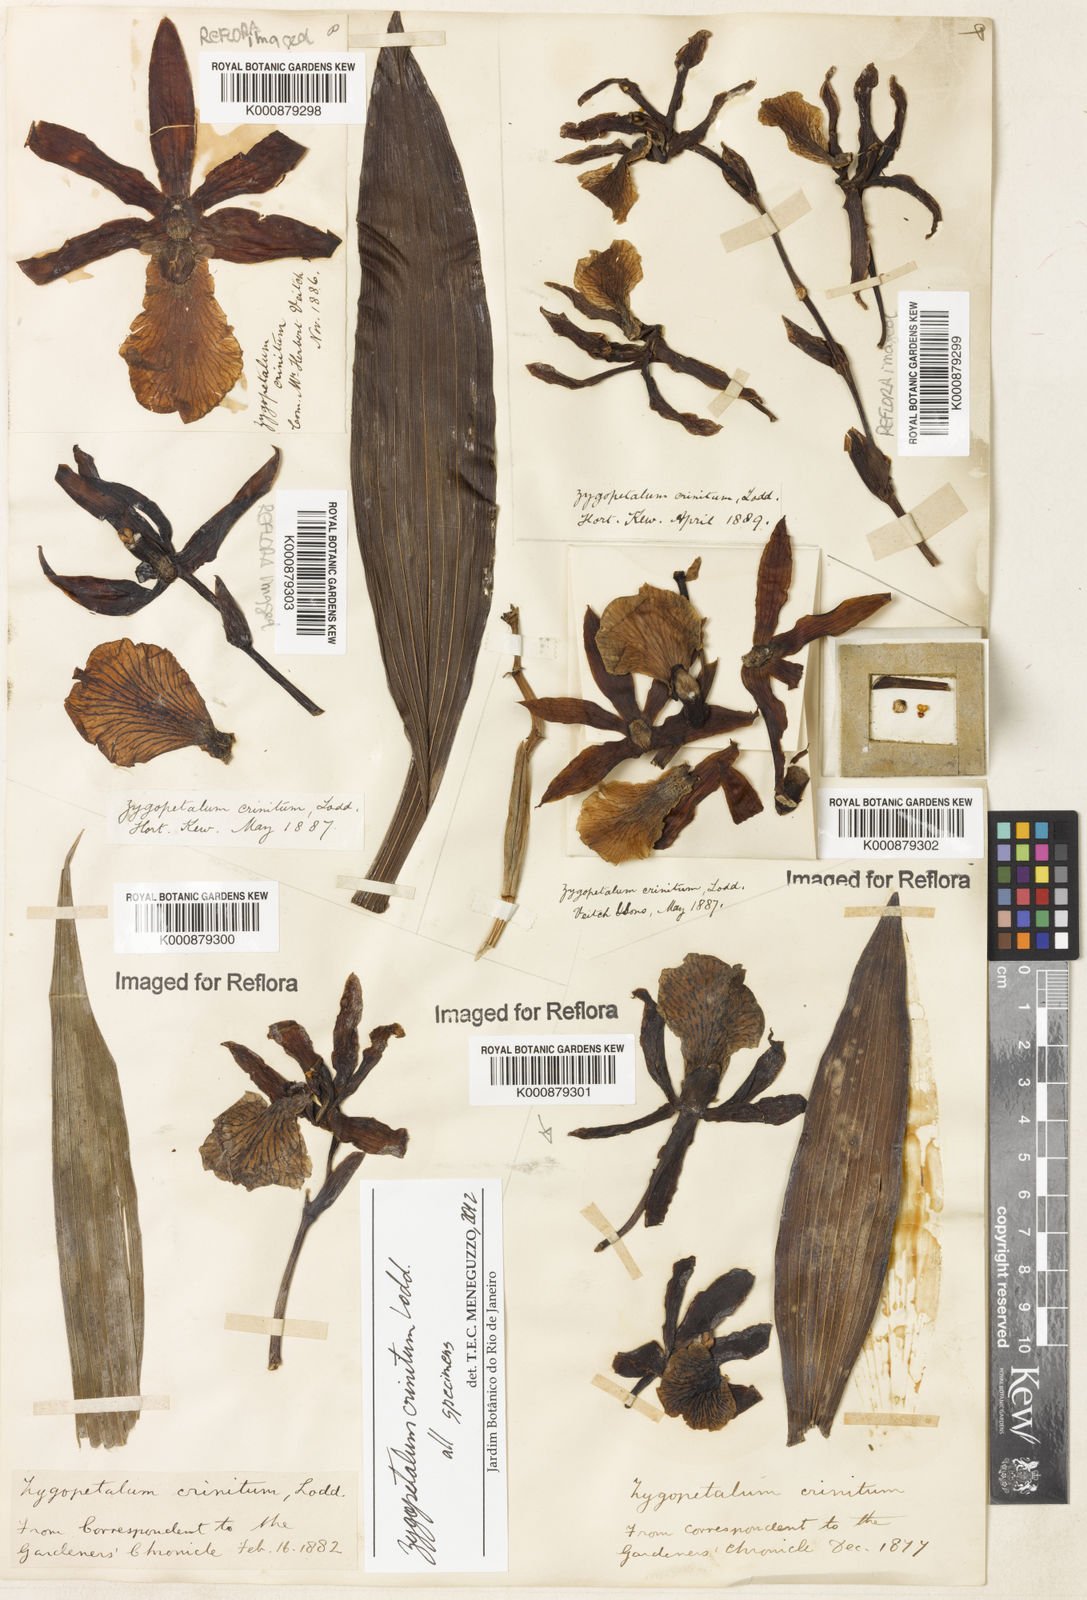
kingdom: Plantae
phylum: Tracheophyta
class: Liliopsida
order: Asparagales
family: Orchidaceae
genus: Zygopetalum
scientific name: Zygopetalum crinitum
